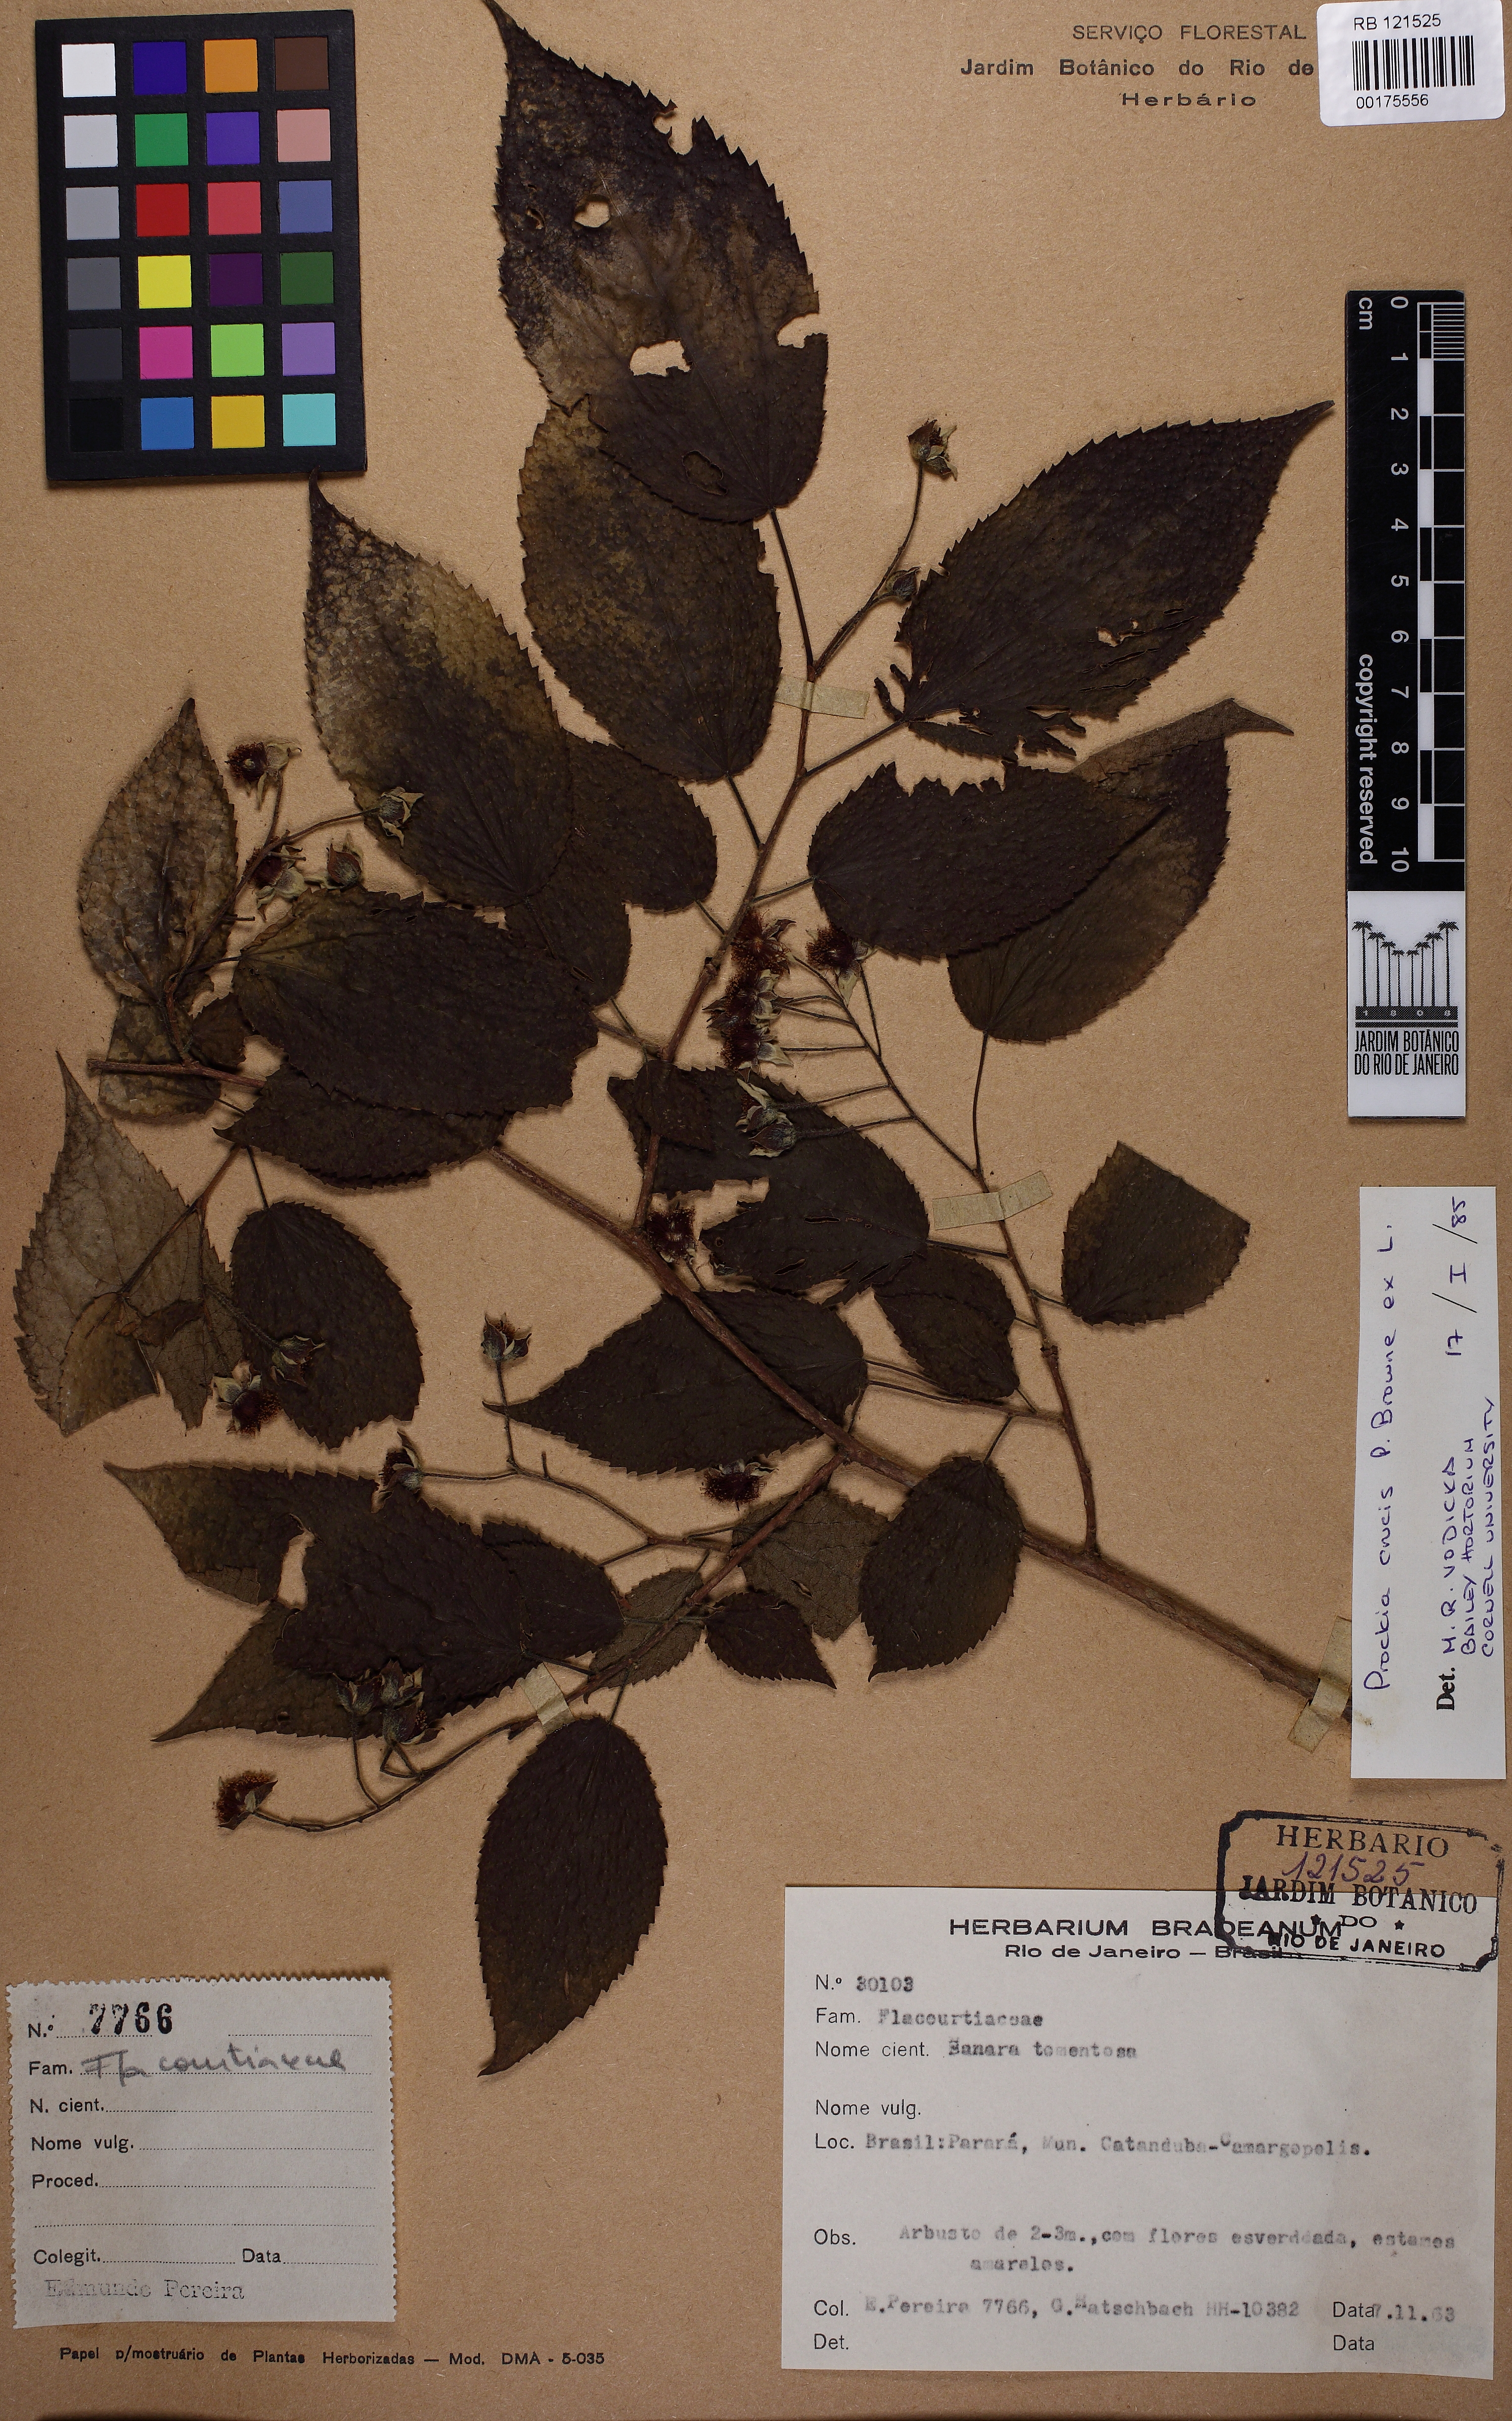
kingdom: Plantae
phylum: Tracheophyta
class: Magnoliopsida
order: Malpighiales
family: Salicaceae
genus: Prockia
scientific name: Prockia
